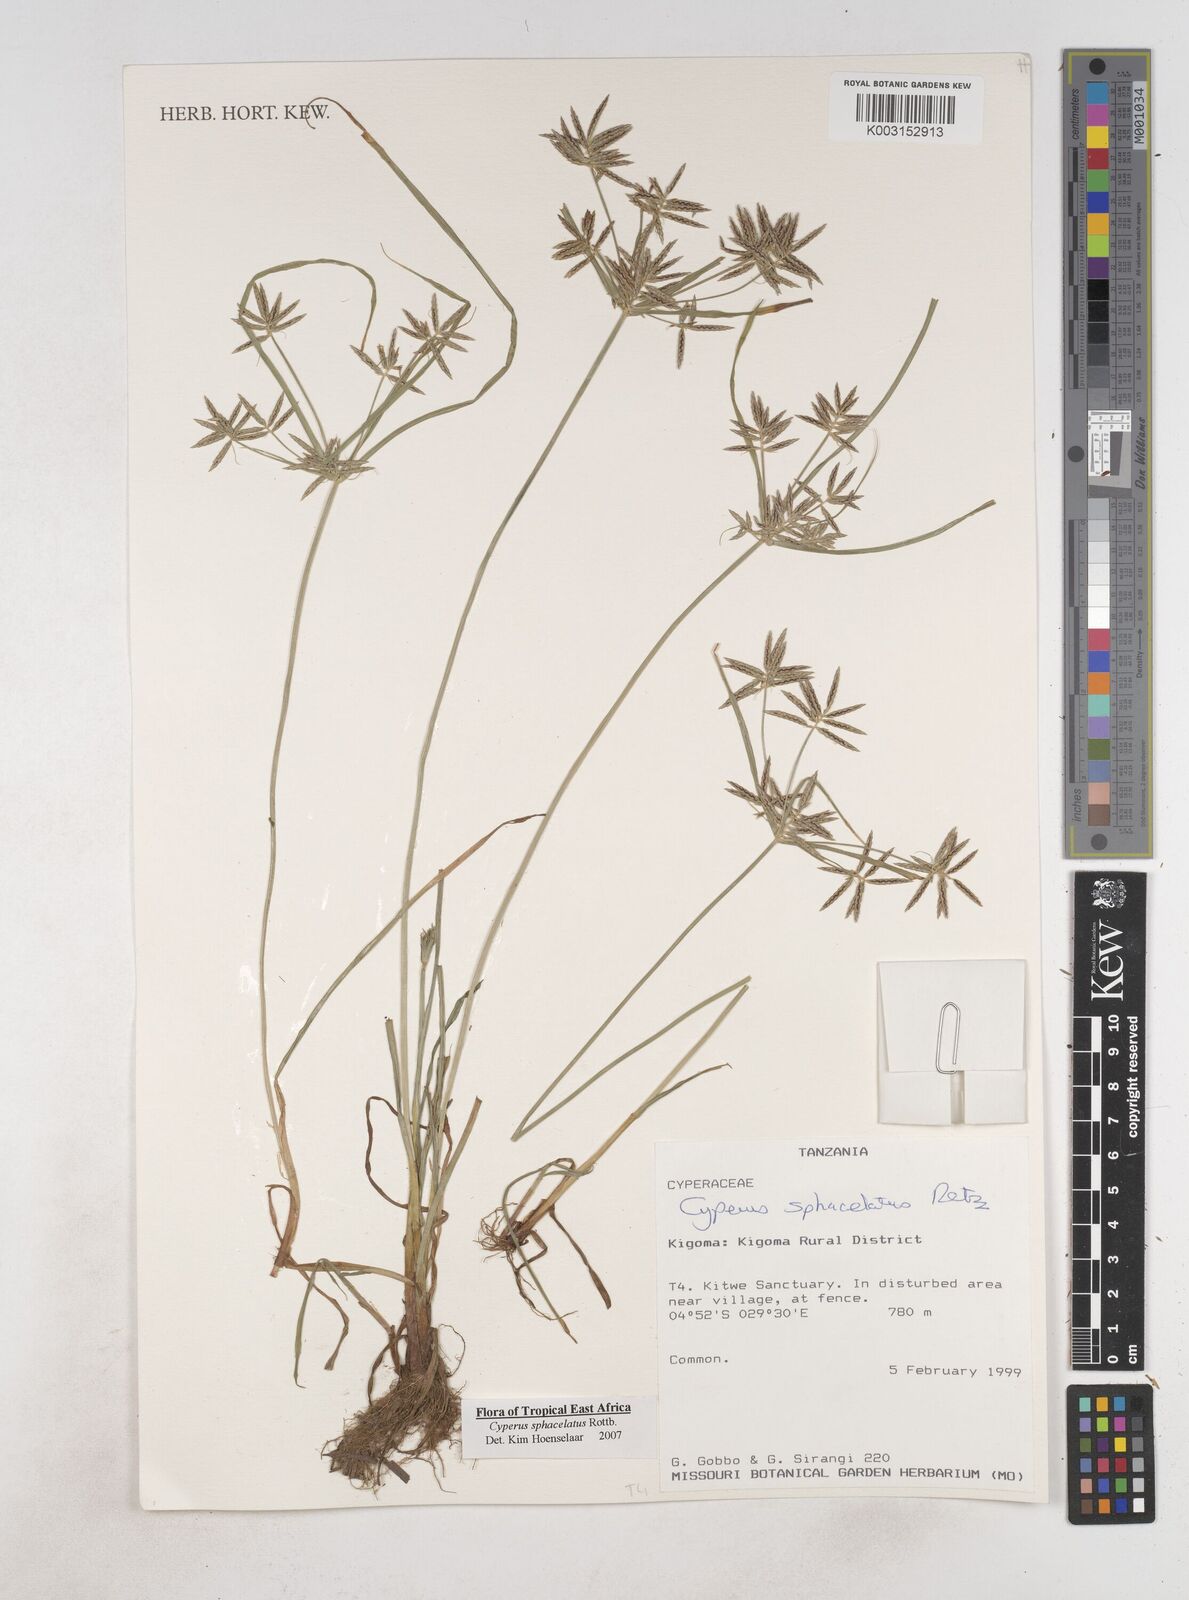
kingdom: Plantae
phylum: Tracheophyta
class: Liliopsida
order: Poales
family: Cyperaceae
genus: Cyperus
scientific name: Cyperus sphacelatus
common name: Roadside flatsedge
